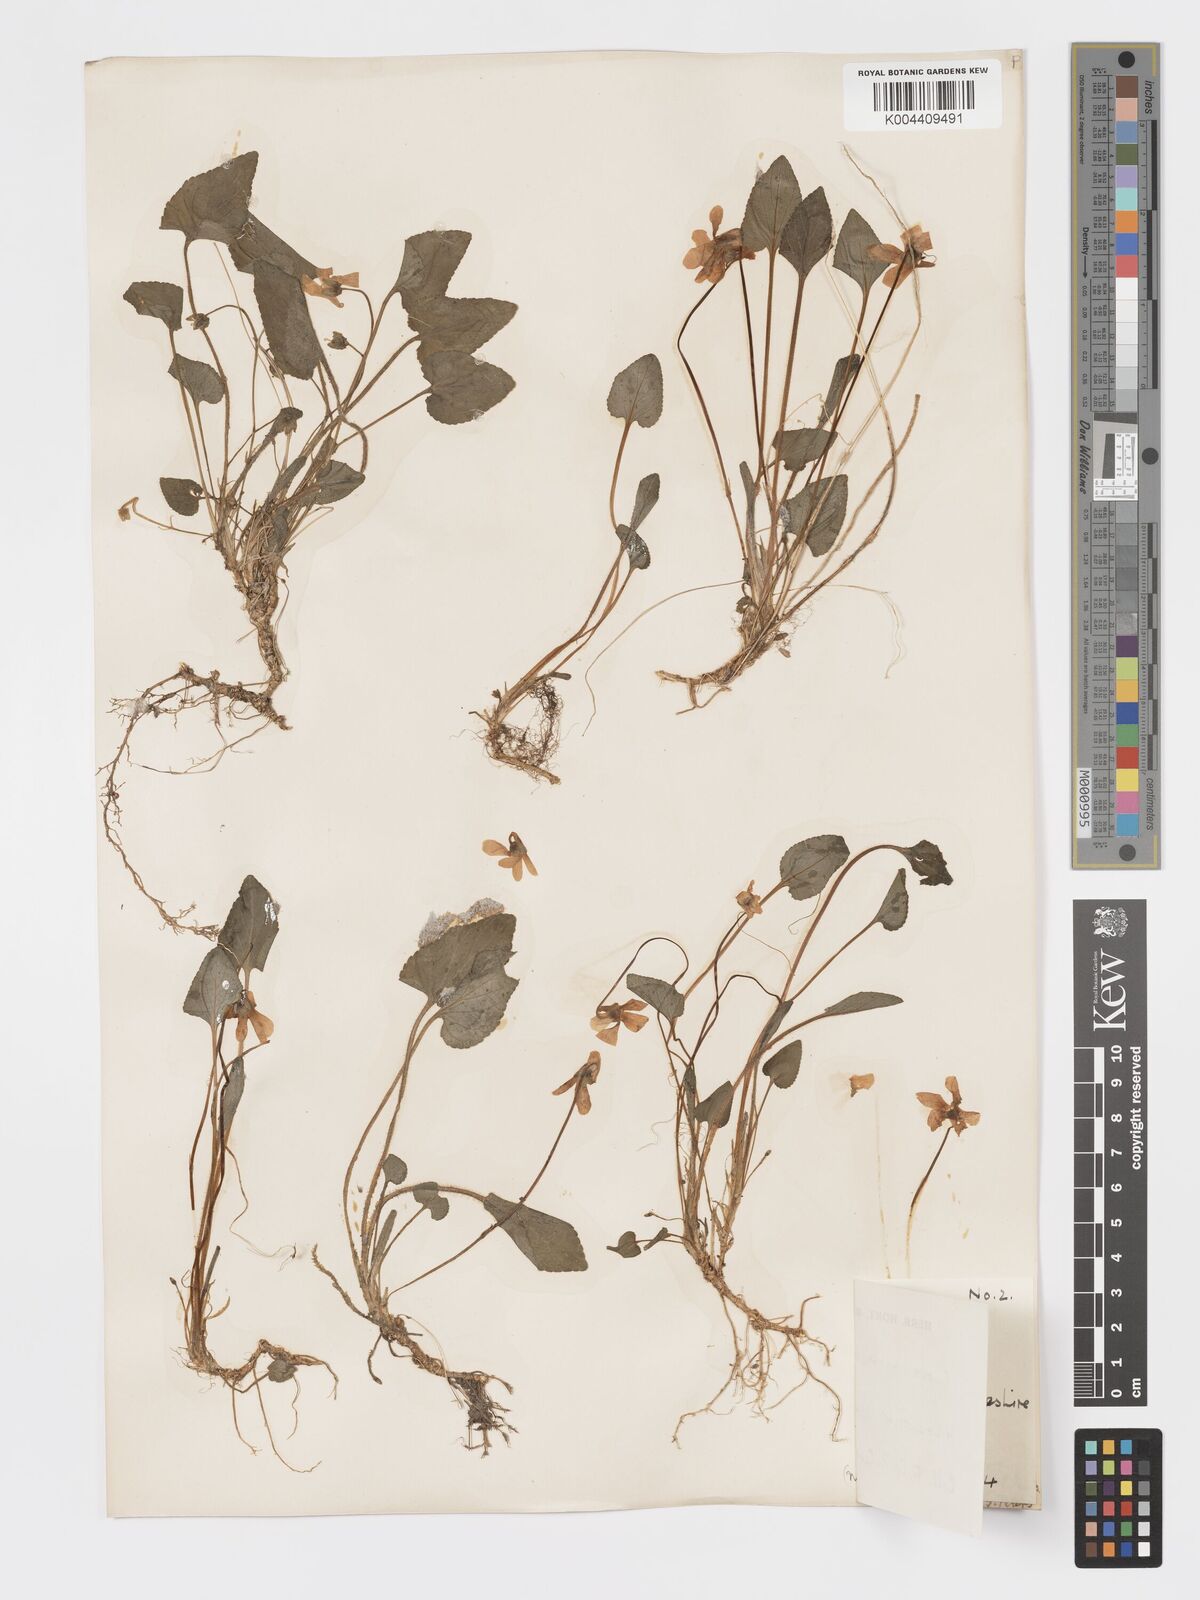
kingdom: Plantae
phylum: Tracheophyta
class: Magnoliopsida
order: Malpighiales
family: Violaceae
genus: Viola
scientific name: Viola
